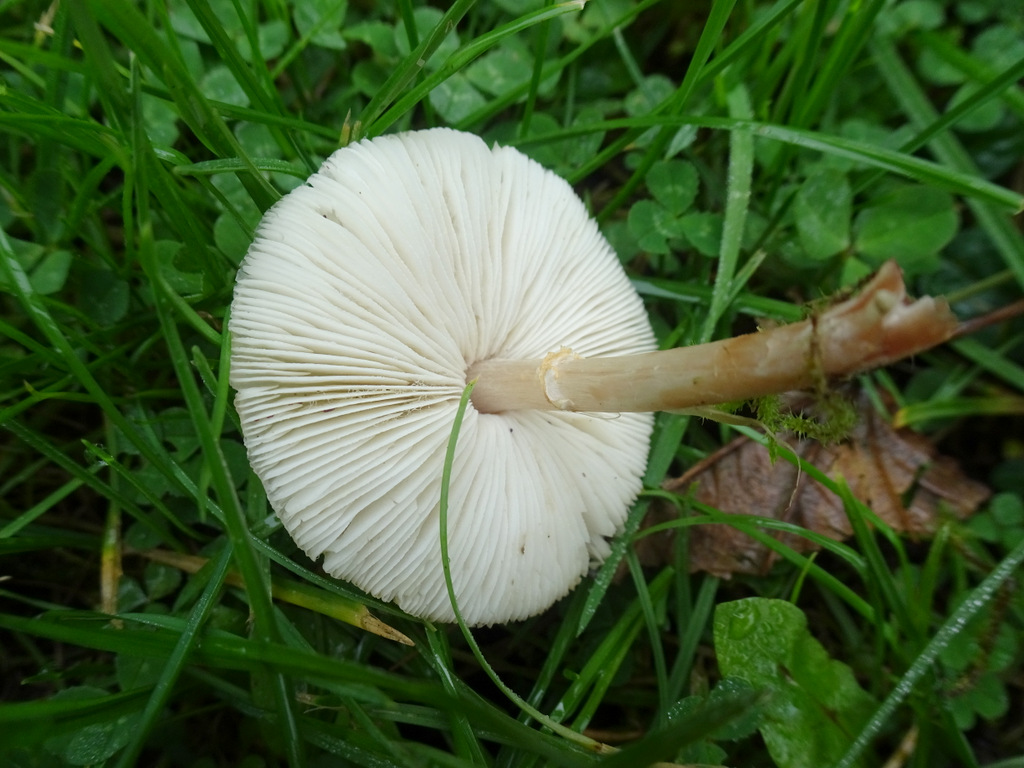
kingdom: Fungi
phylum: Basidiomycota
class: Agaricomycetes
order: Agaricales
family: Agaricaceae
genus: Lepiota
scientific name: Lepiota cristata
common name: stinkende parasolhat
